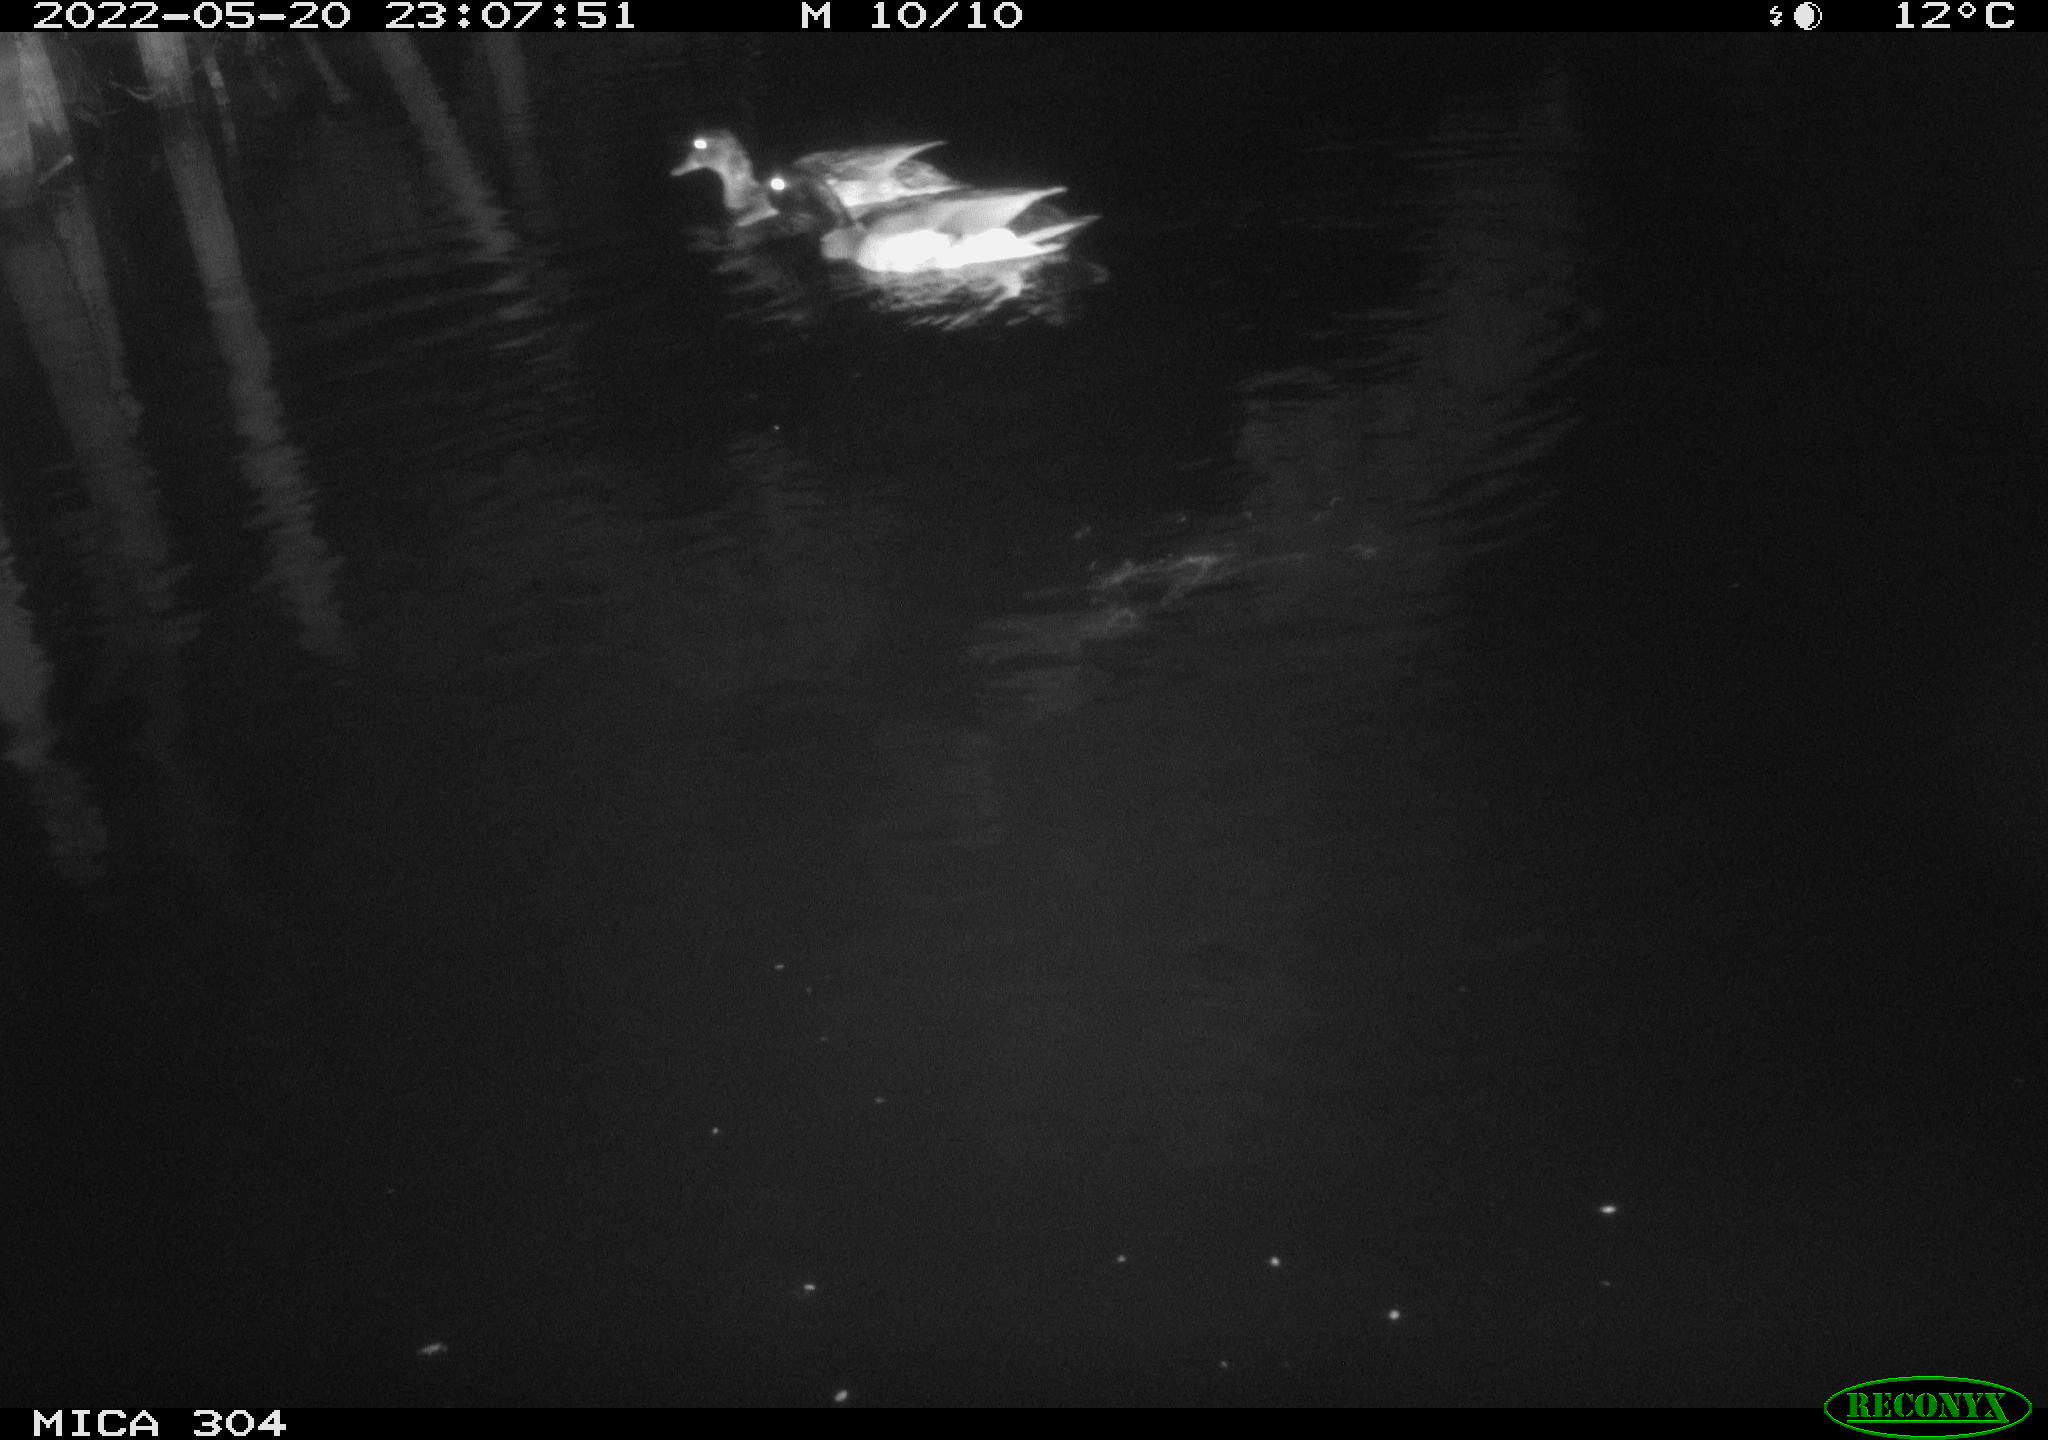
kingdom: Animalia
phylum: Chordata
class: Aves
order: Anseriformes
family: Anatidae
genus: Mareca
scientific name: Mareca strepera
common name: Gadwall
